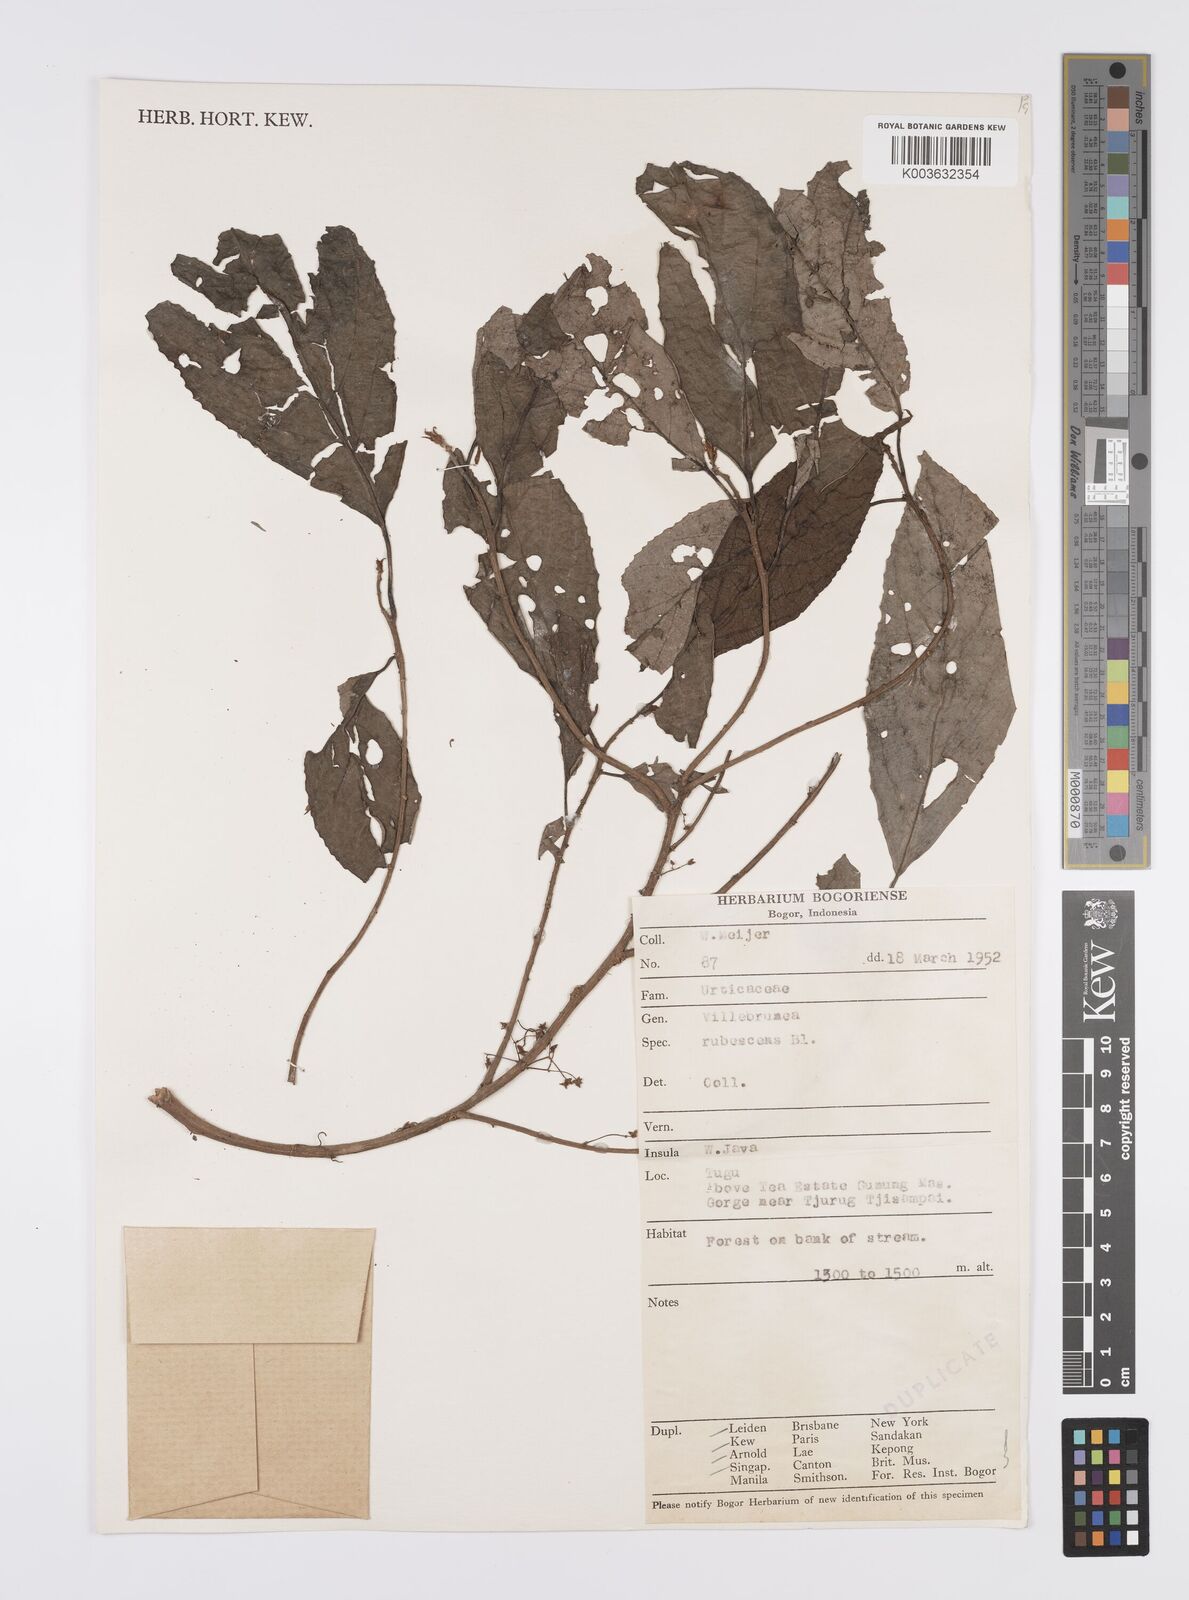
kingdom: Plantae
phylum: Tracheophyta
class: Magnoliopsida
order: Rosales
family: Urticaceae
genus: Oreocnide
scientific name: Oreocnide rubescens
